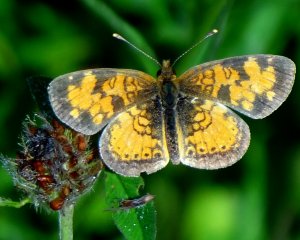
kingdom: Animalia
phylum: Arthropoda
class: Insecta
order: Lepidoptera
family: Nymphalidae
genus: Phyciodes
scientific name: Phyciodes tharos
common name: Northern Crescent
